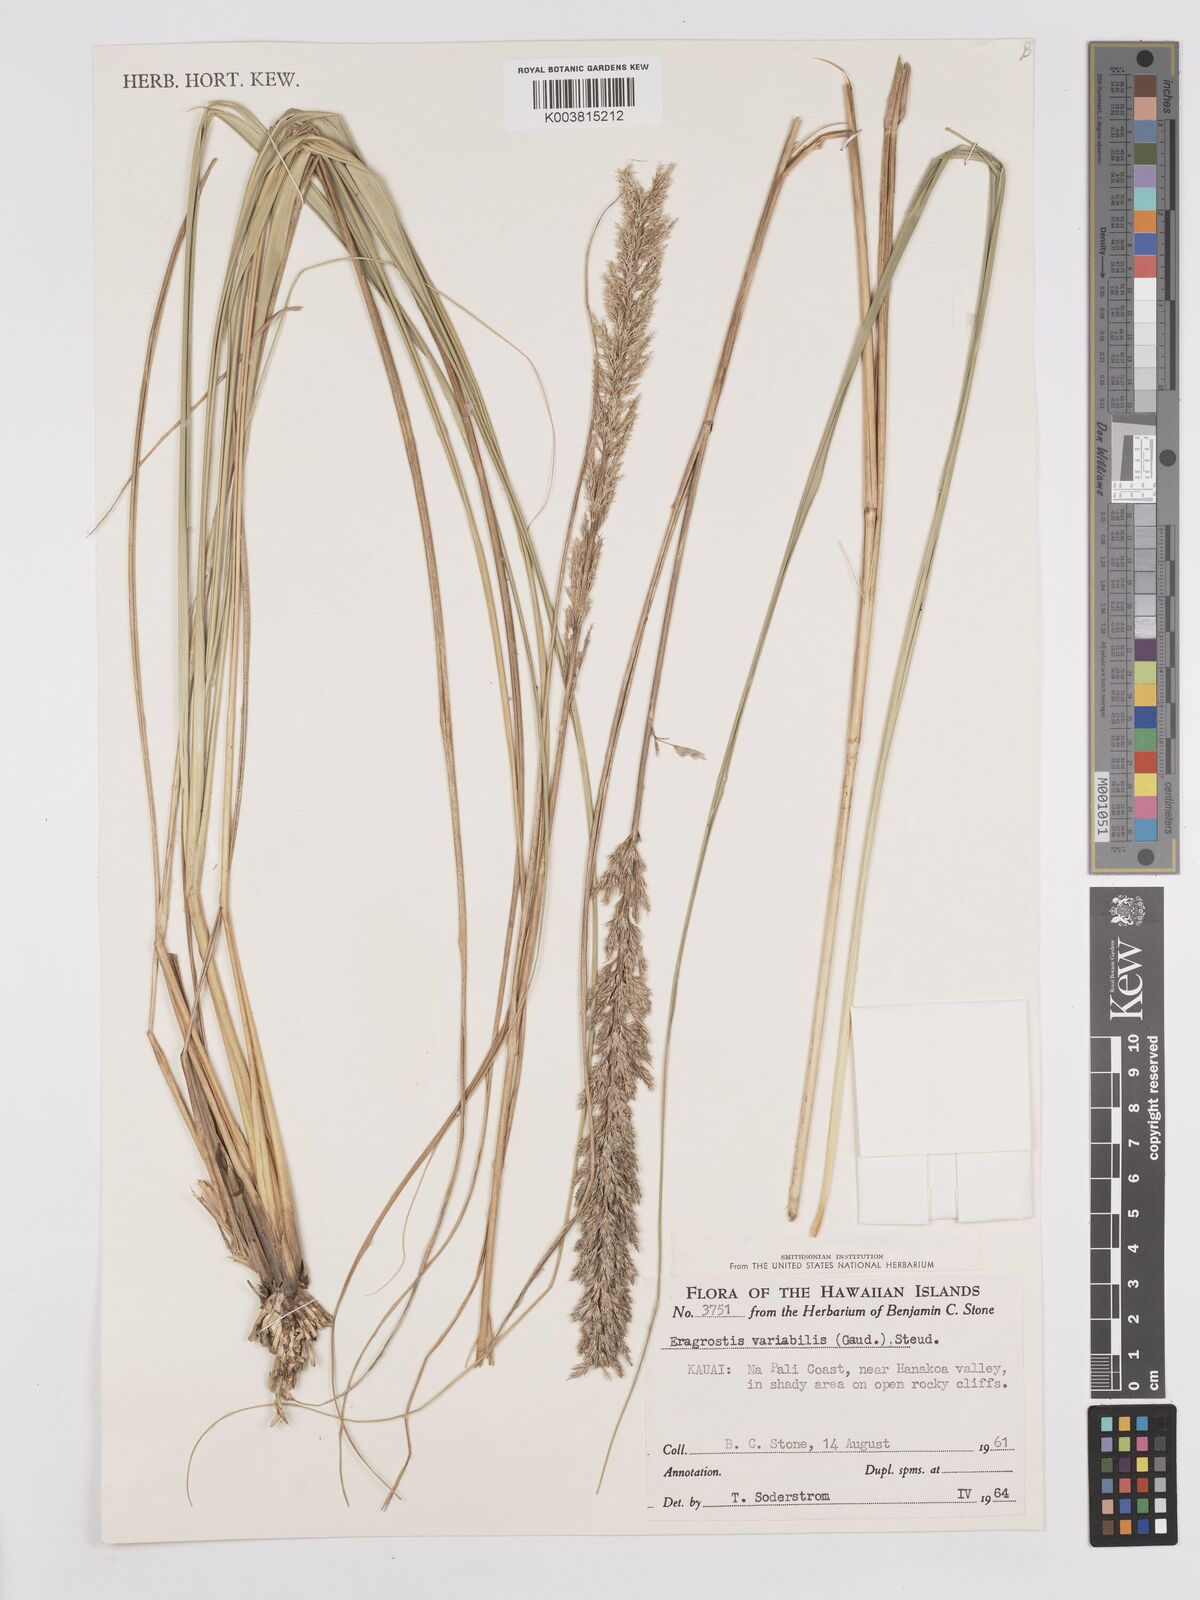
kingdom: Plantae
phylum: Tracheophyta
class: Liliopsida
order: Poales
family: Poaceae
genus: Eragrostis
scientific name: Eragrostis variabilis
